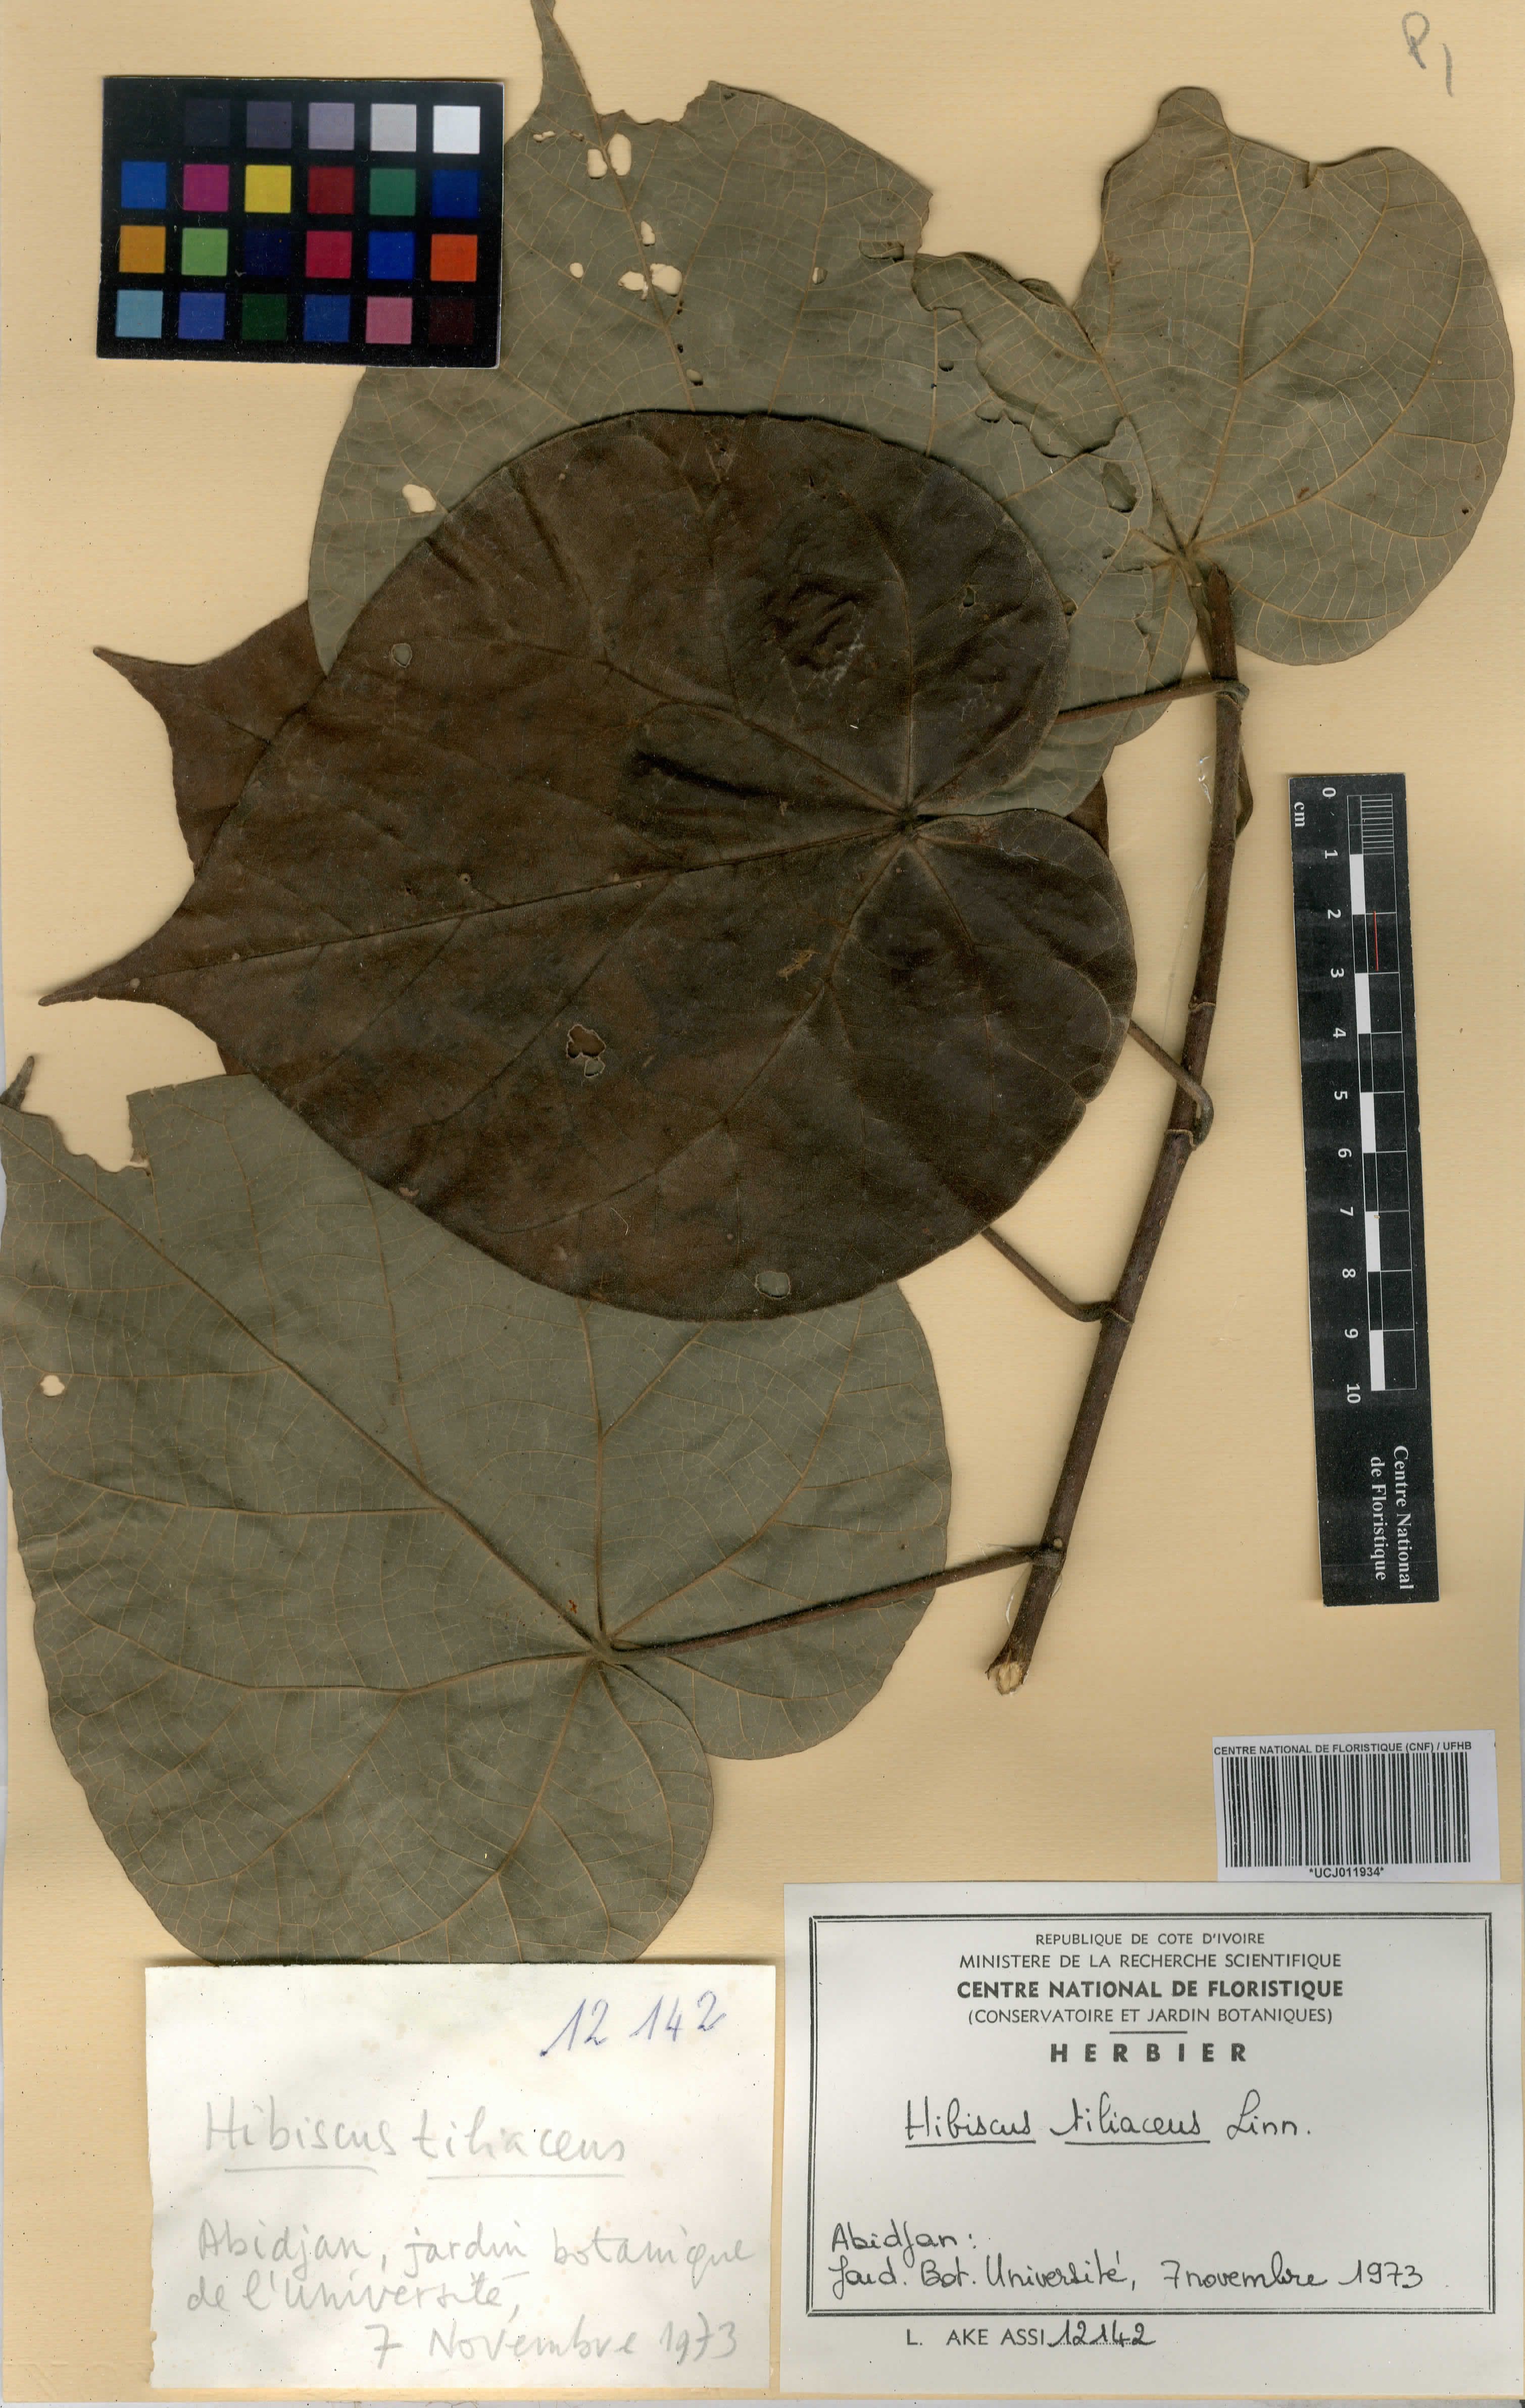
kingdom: Plantae
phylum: Tracheophyta
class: Magnoliopsida
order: Malvales
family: Malvaceae
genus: Talipariti
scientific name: Talipariti tiliaceum
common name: Sea hibiscus
